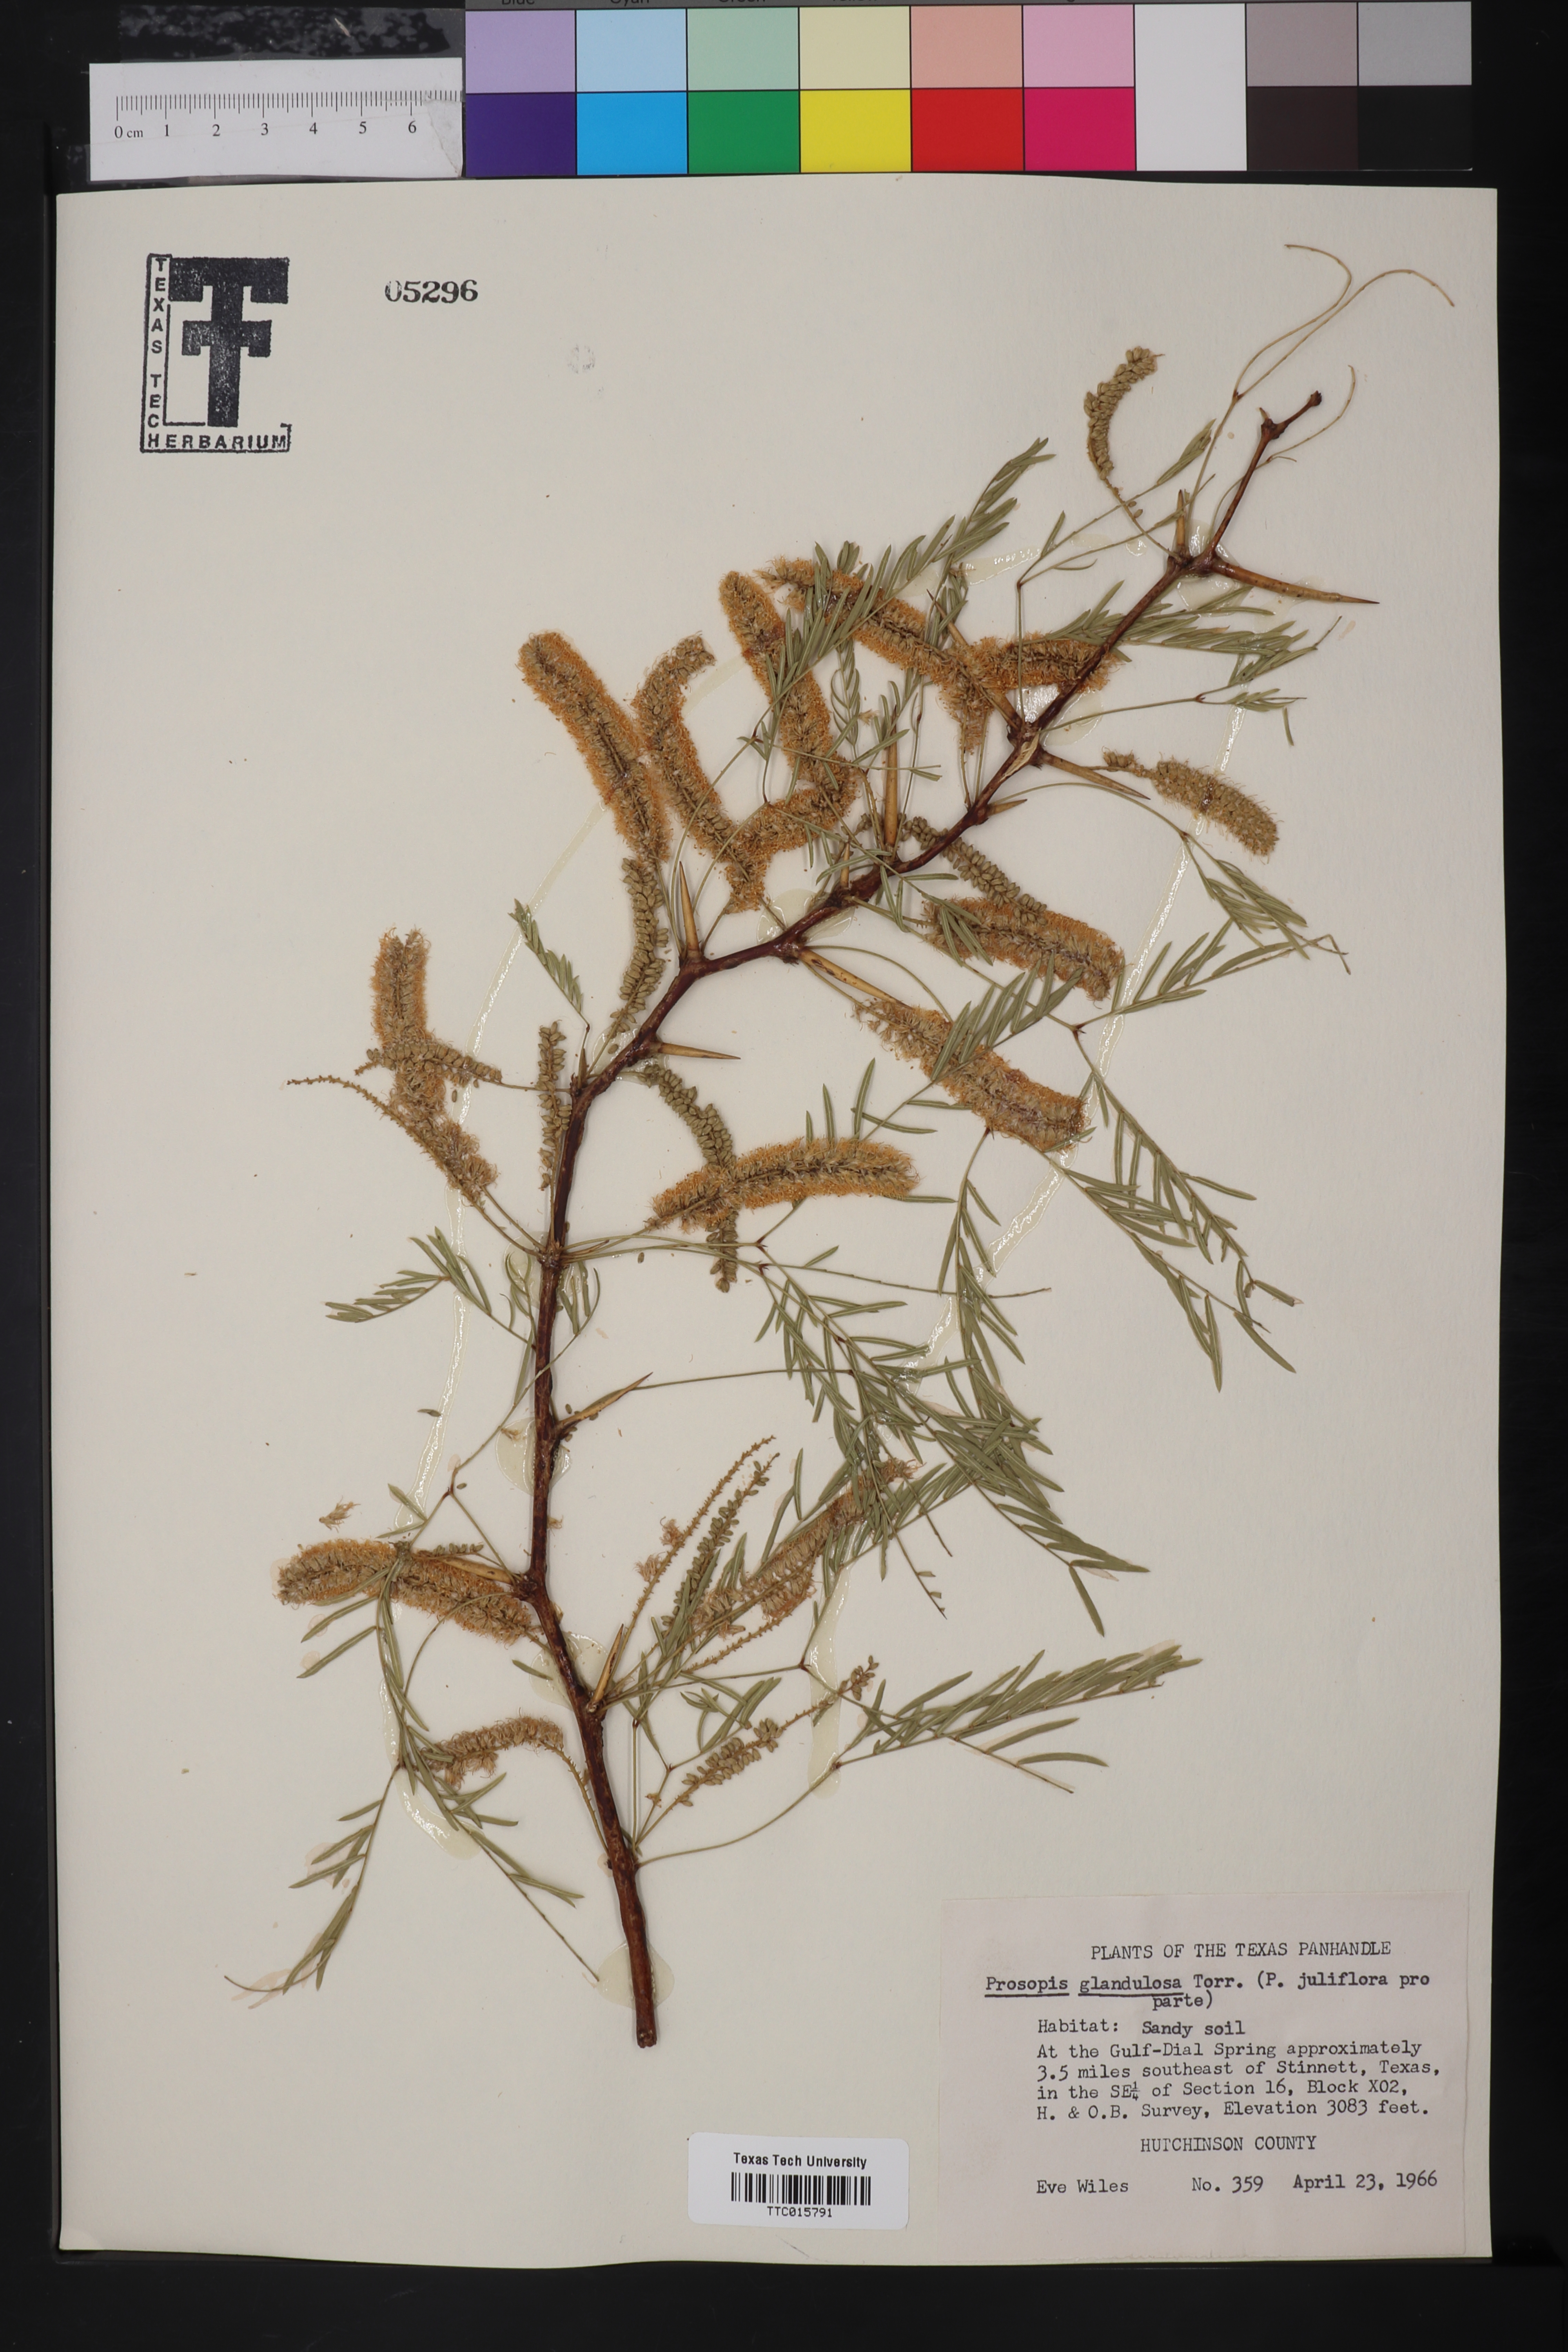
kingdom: Plantae
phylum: Tracheophyta
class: Magnoliopsida
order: Fabales
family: Fabaceae
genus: Prosopis
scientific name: Prosopis glandulosa
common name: Honey mesquite
